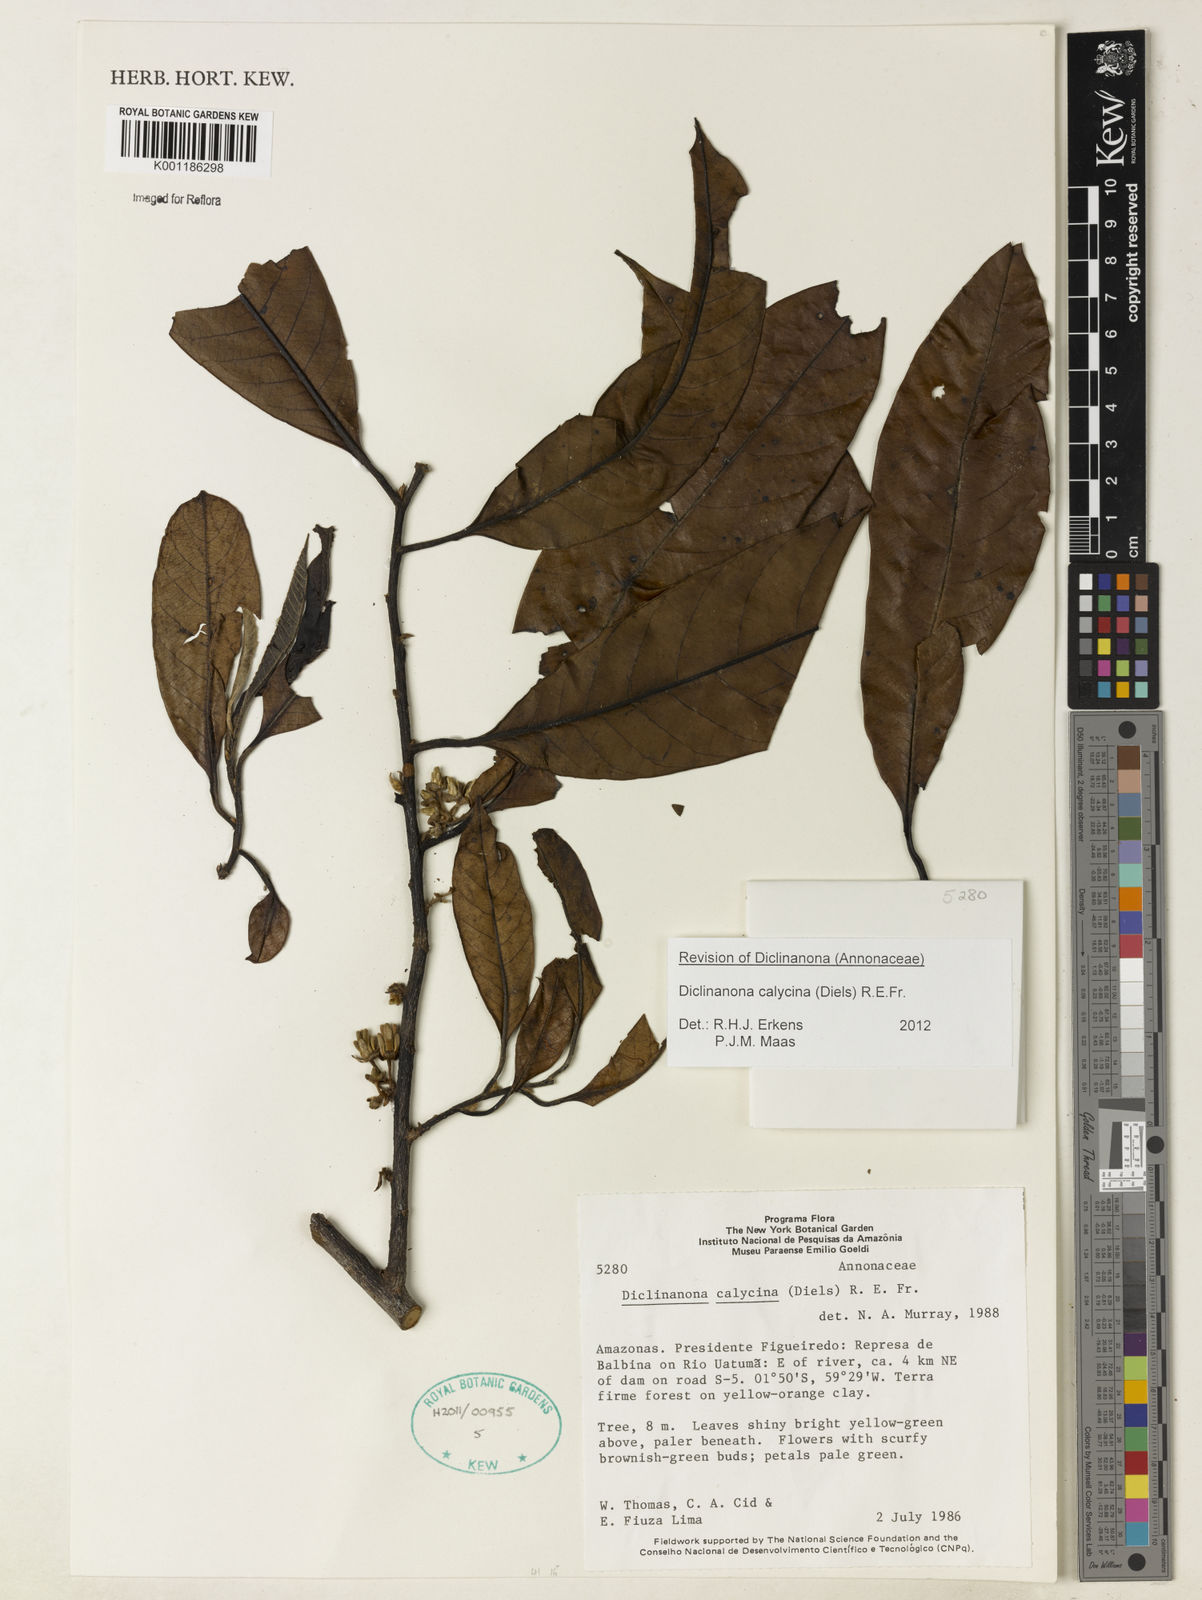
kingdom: Plantae
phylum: Tracheophyta
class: Magnoliopsida
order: Magnoliales
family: Annonaceae
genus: Diclinanona
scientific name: Diclinanona calycina
